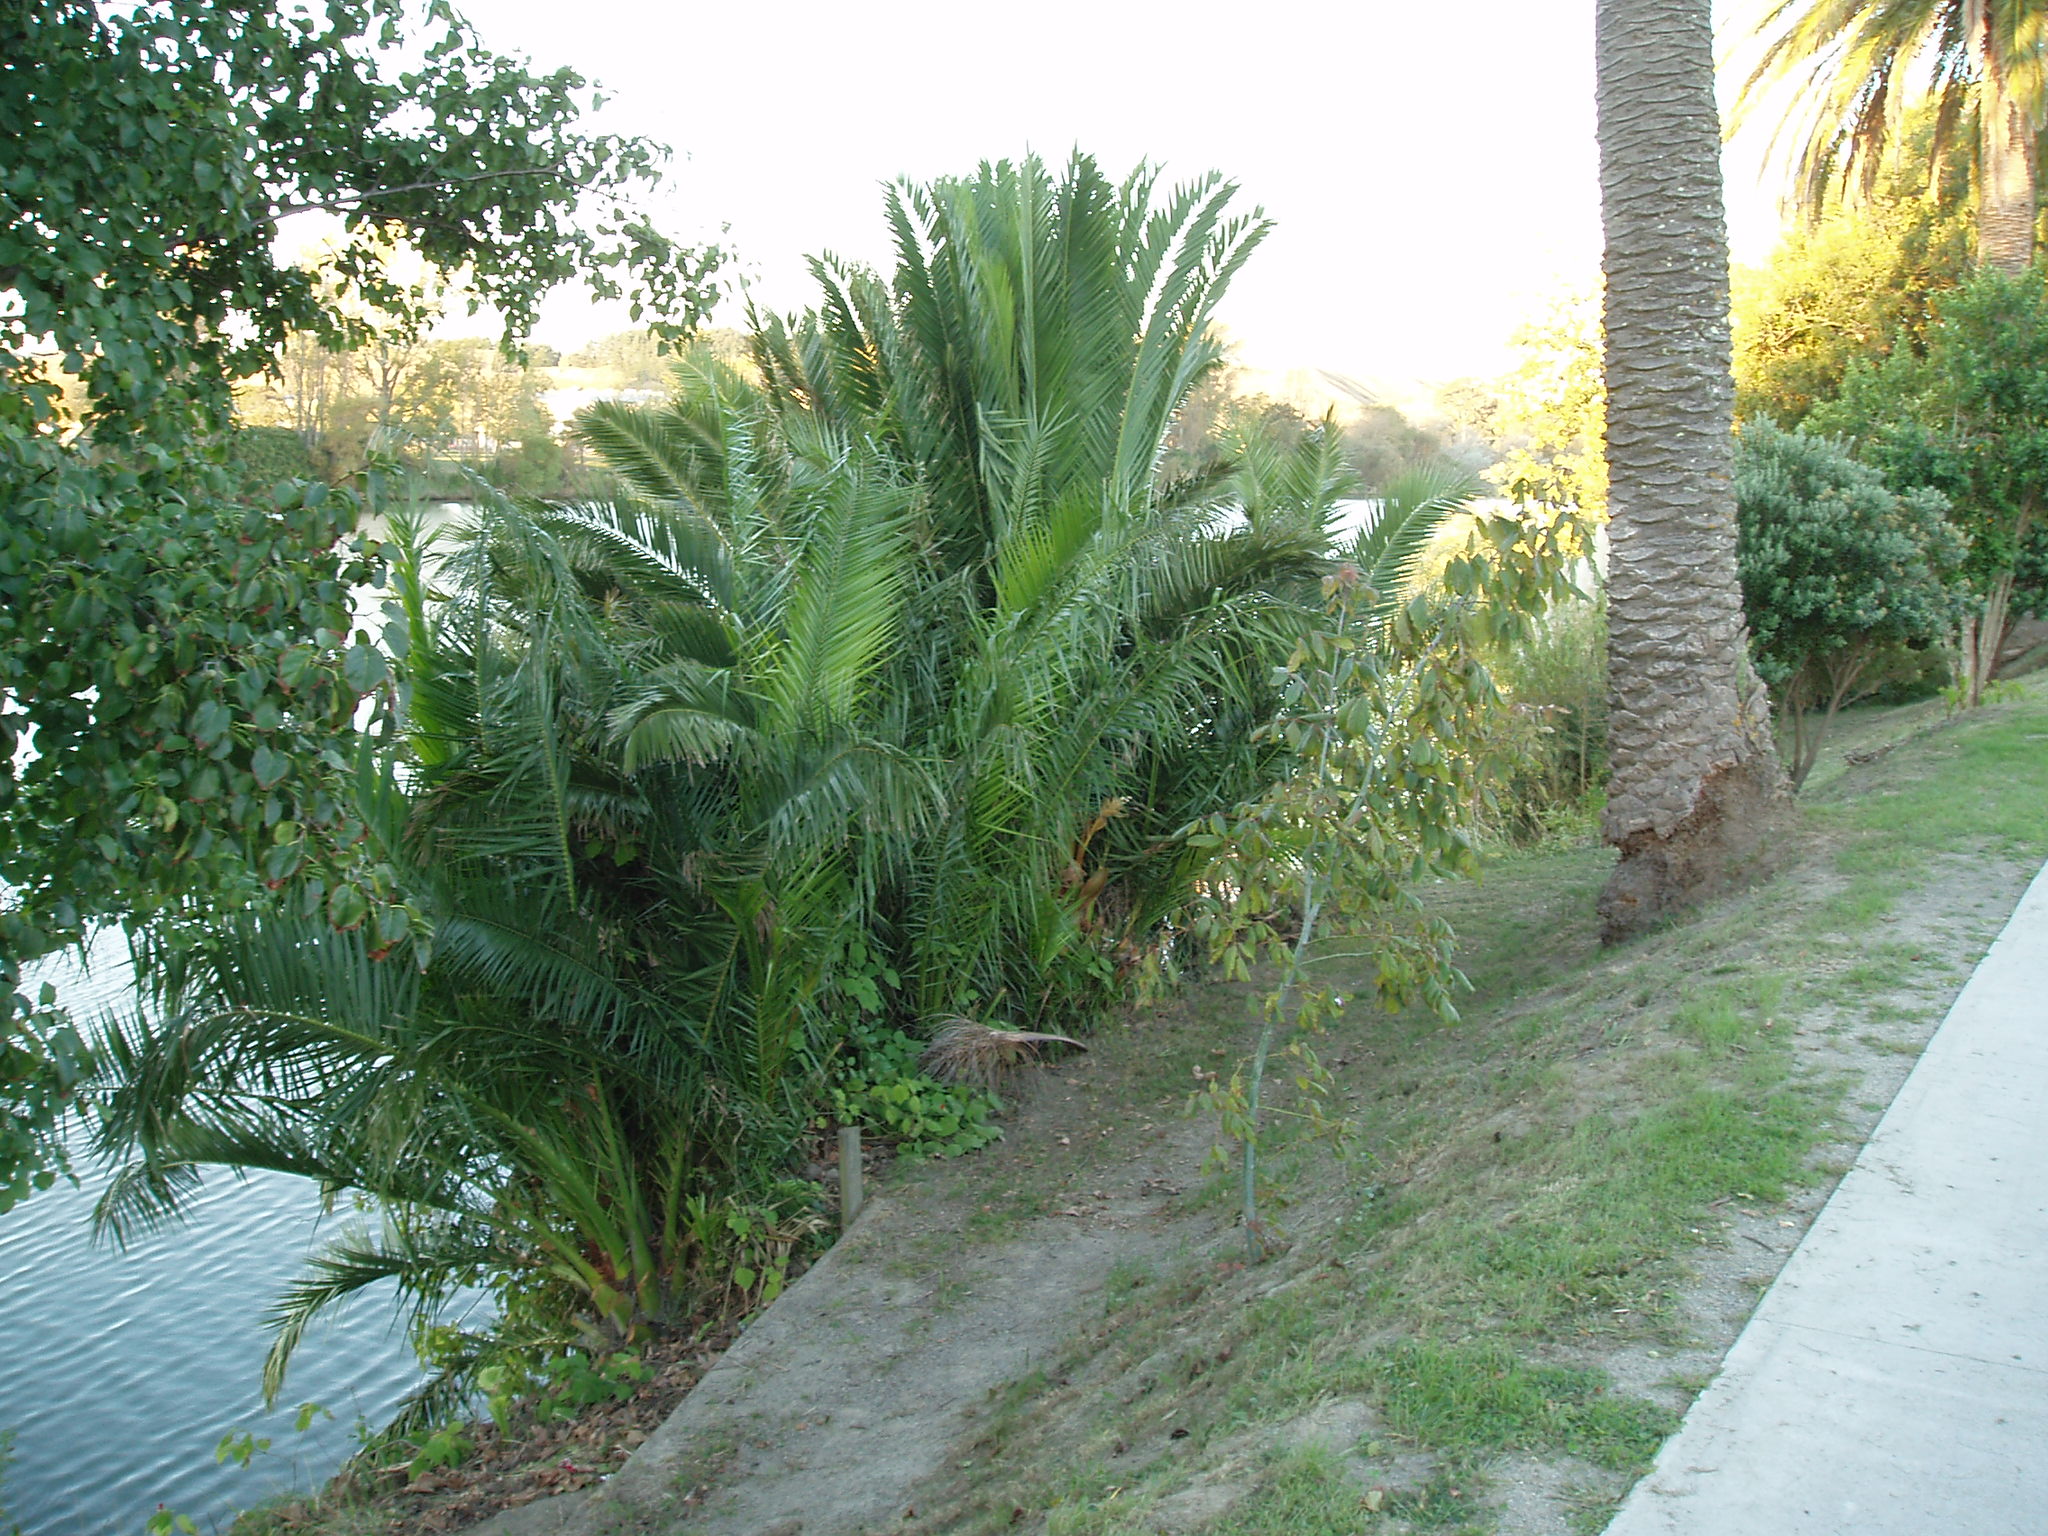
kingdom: Plantae
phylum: Tracheophyta
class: Liliopsida
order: Arecales
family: Arecaceae
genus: Phoenix
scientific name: Phoenix canariensis
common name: Canary island date palm
